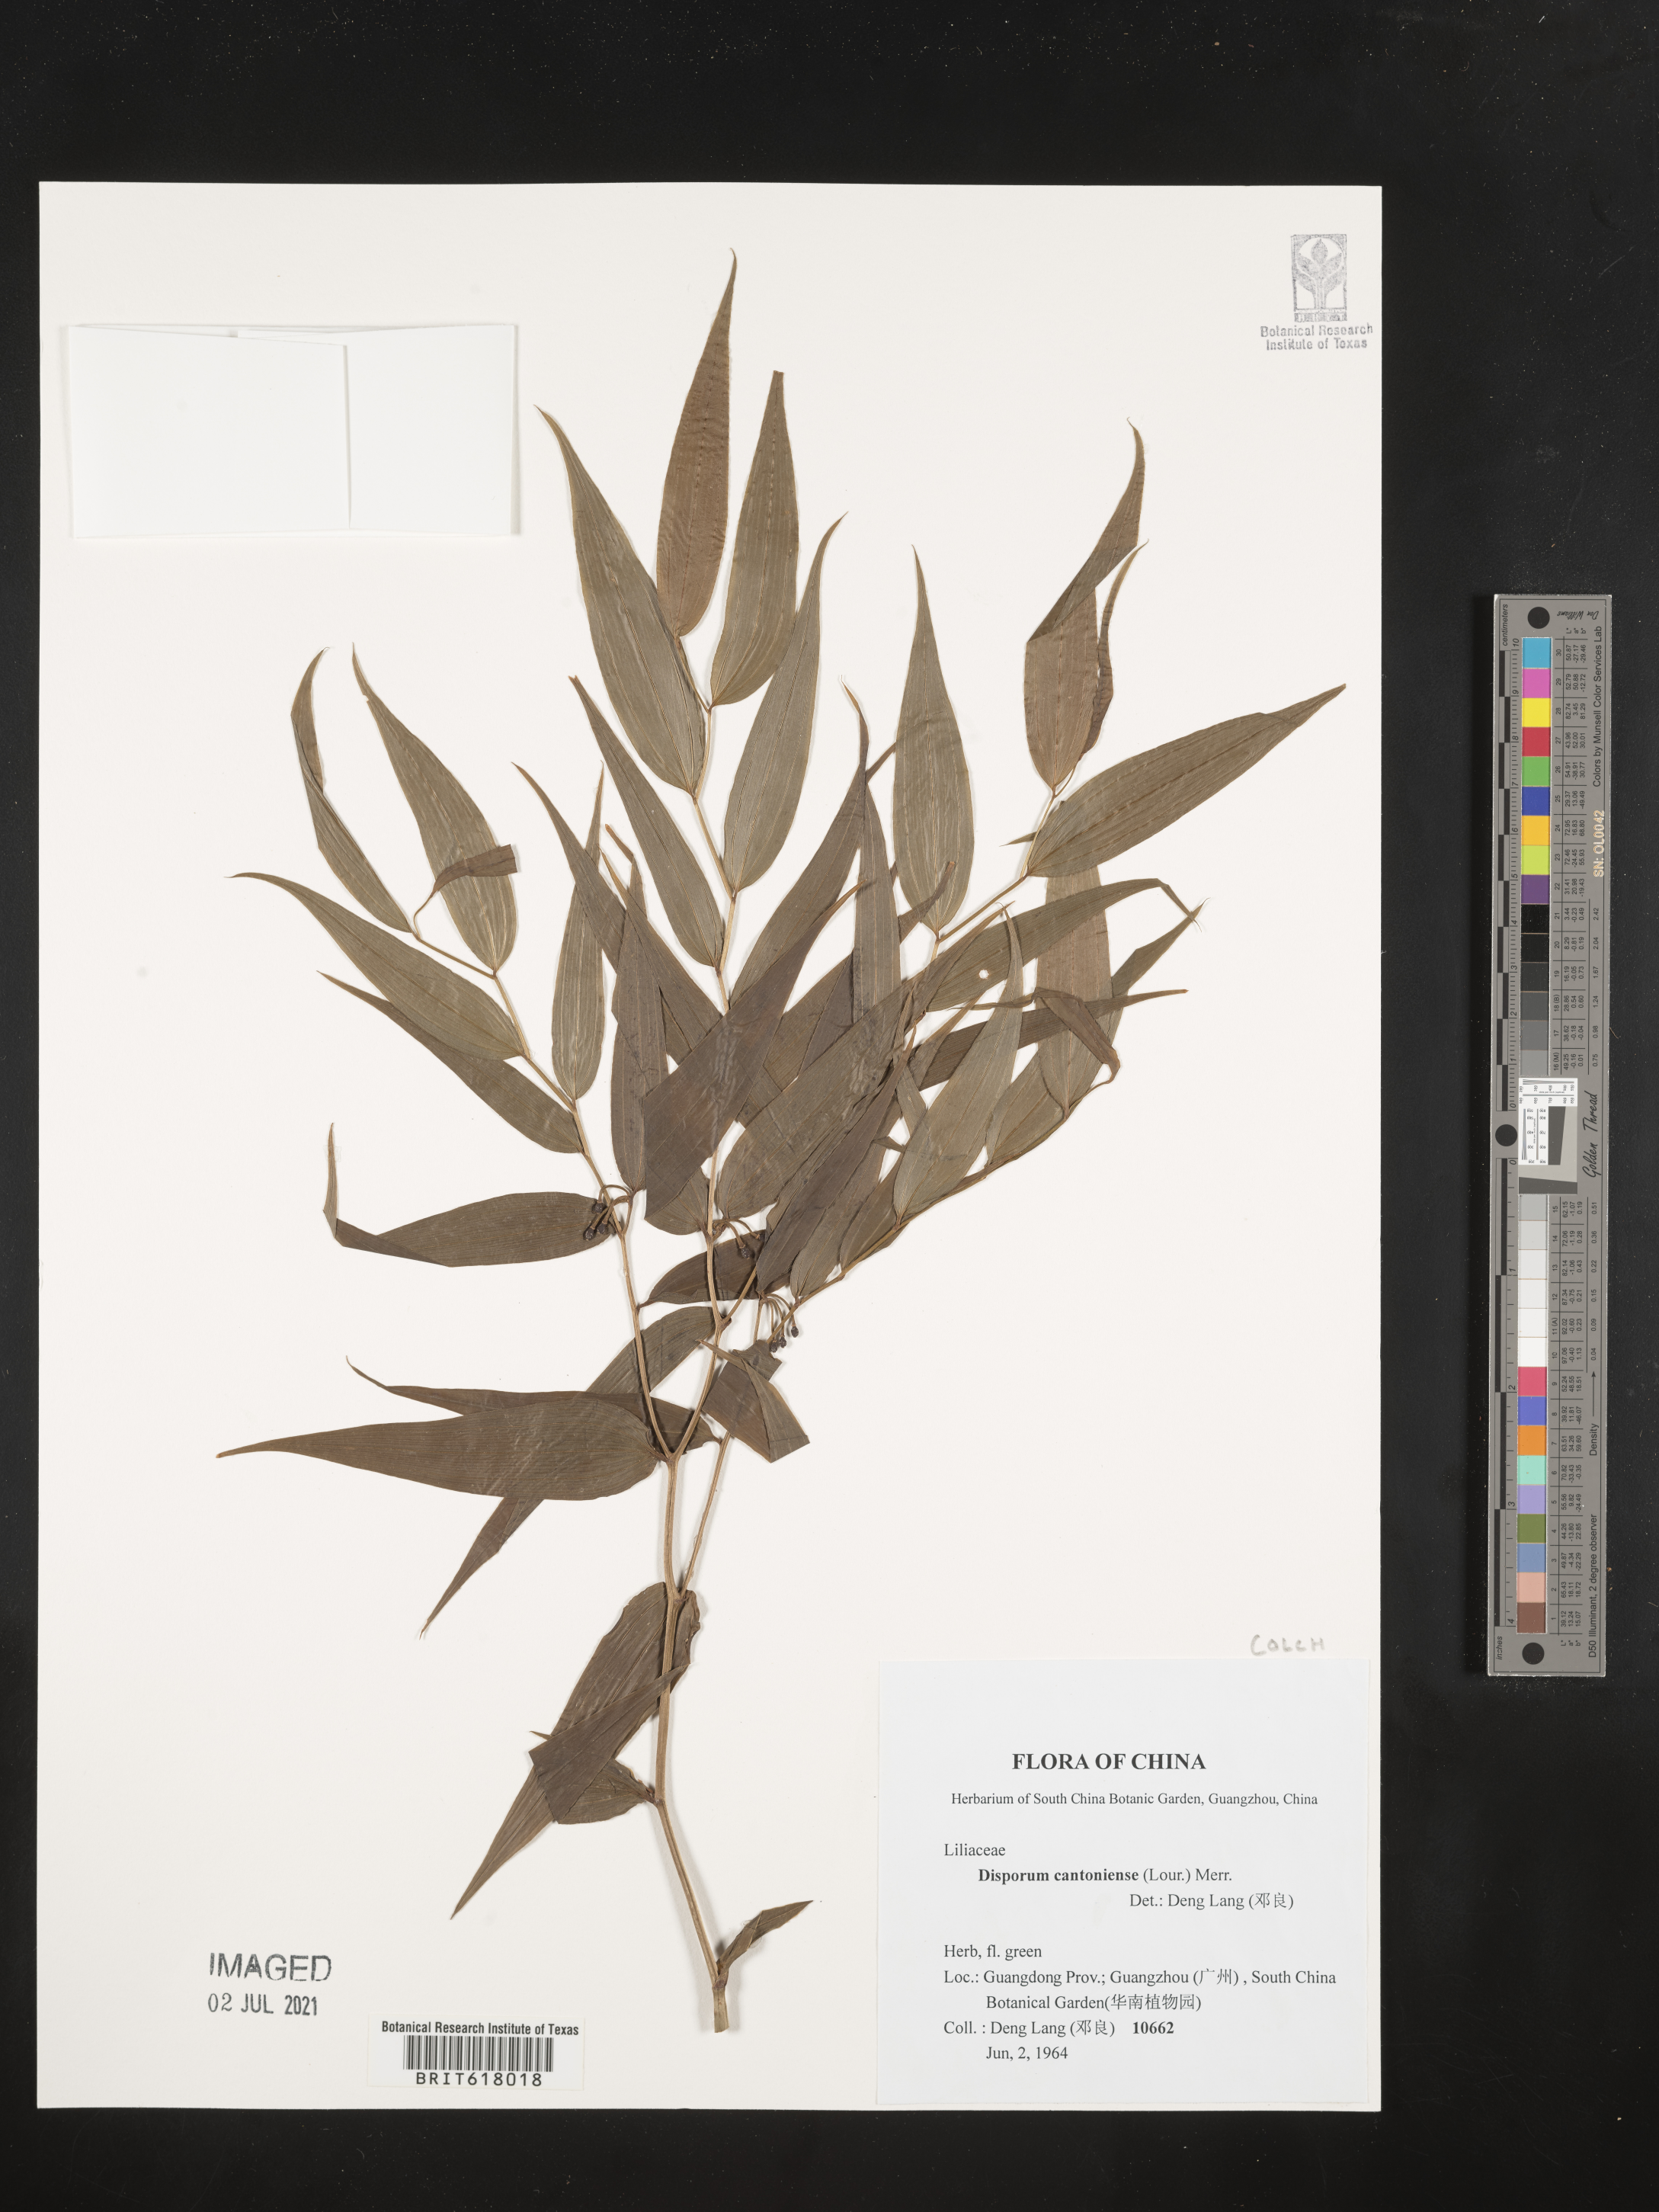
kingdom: Plantae
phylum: Tracheophyta
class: Liliopsida
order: Liliales
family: Colchicaceae
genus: Disporum
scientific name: Disporum cantoniense
